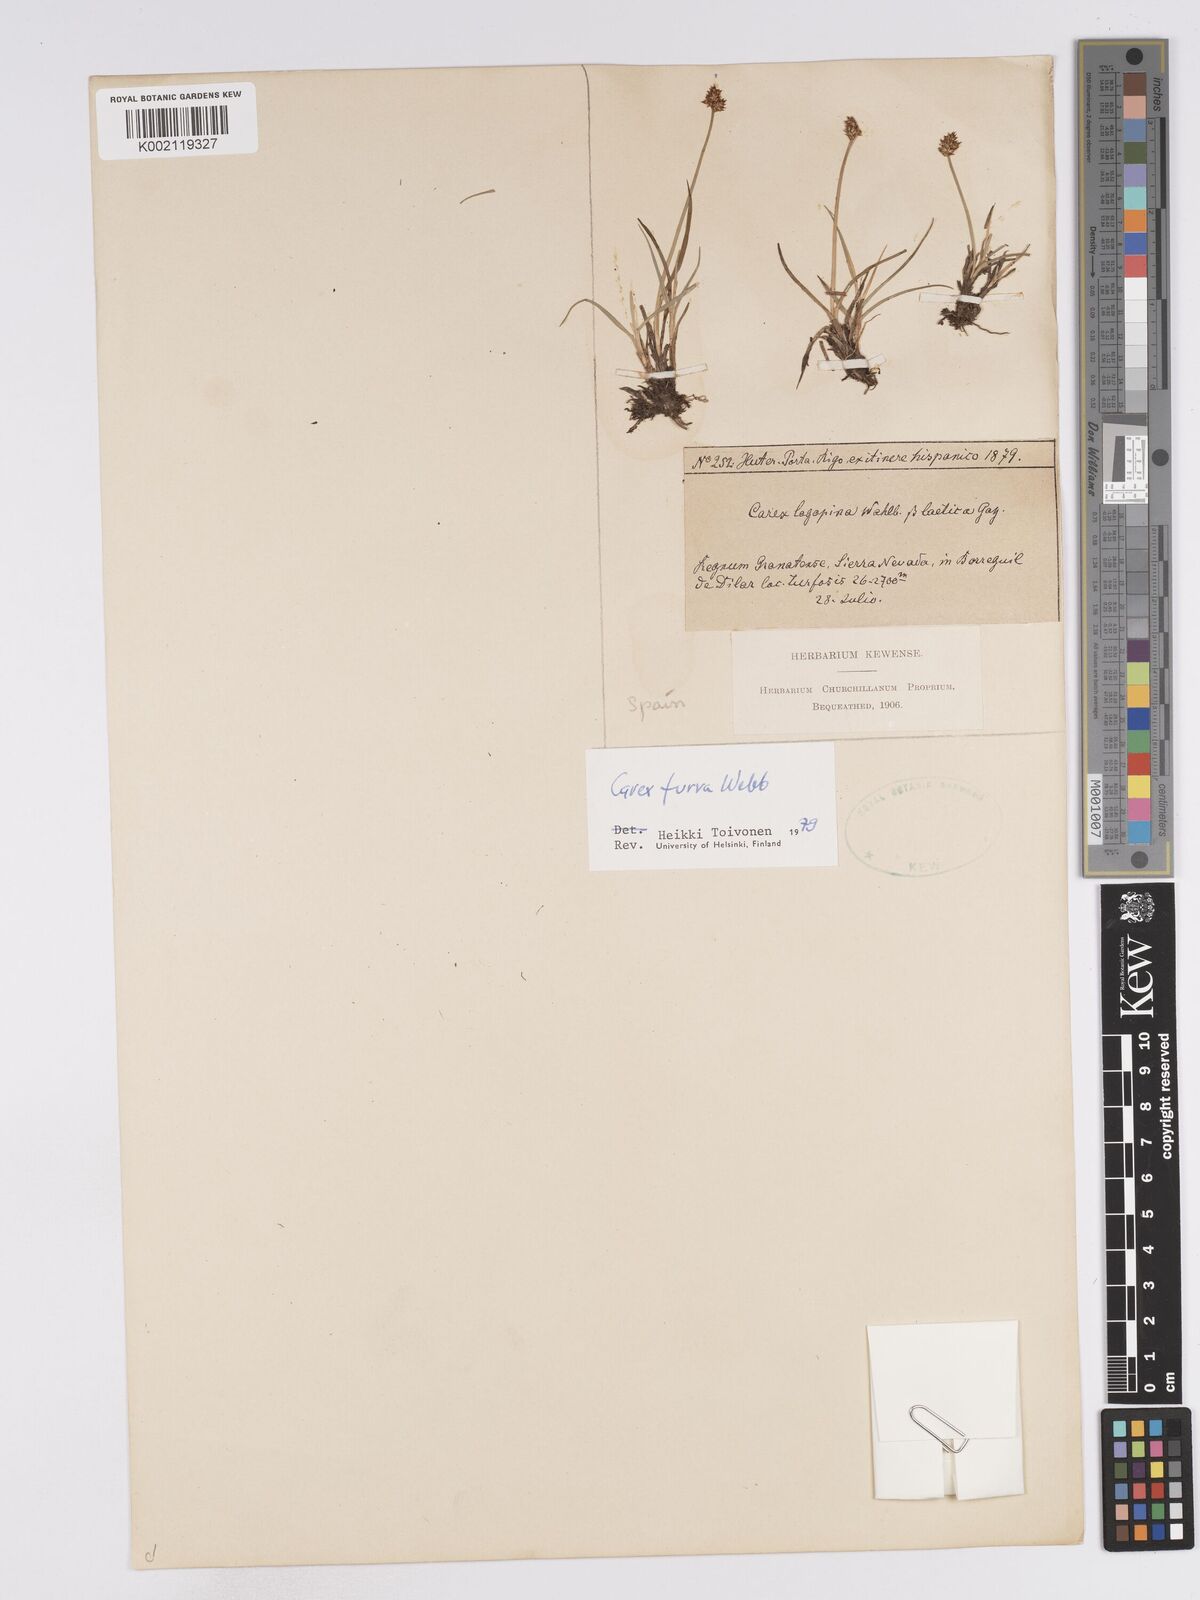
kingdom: Plantae
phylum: Tracheophyta
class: Liliopsida
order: Poales
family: Cyperaceae
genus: Carex
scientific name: Carex furva
